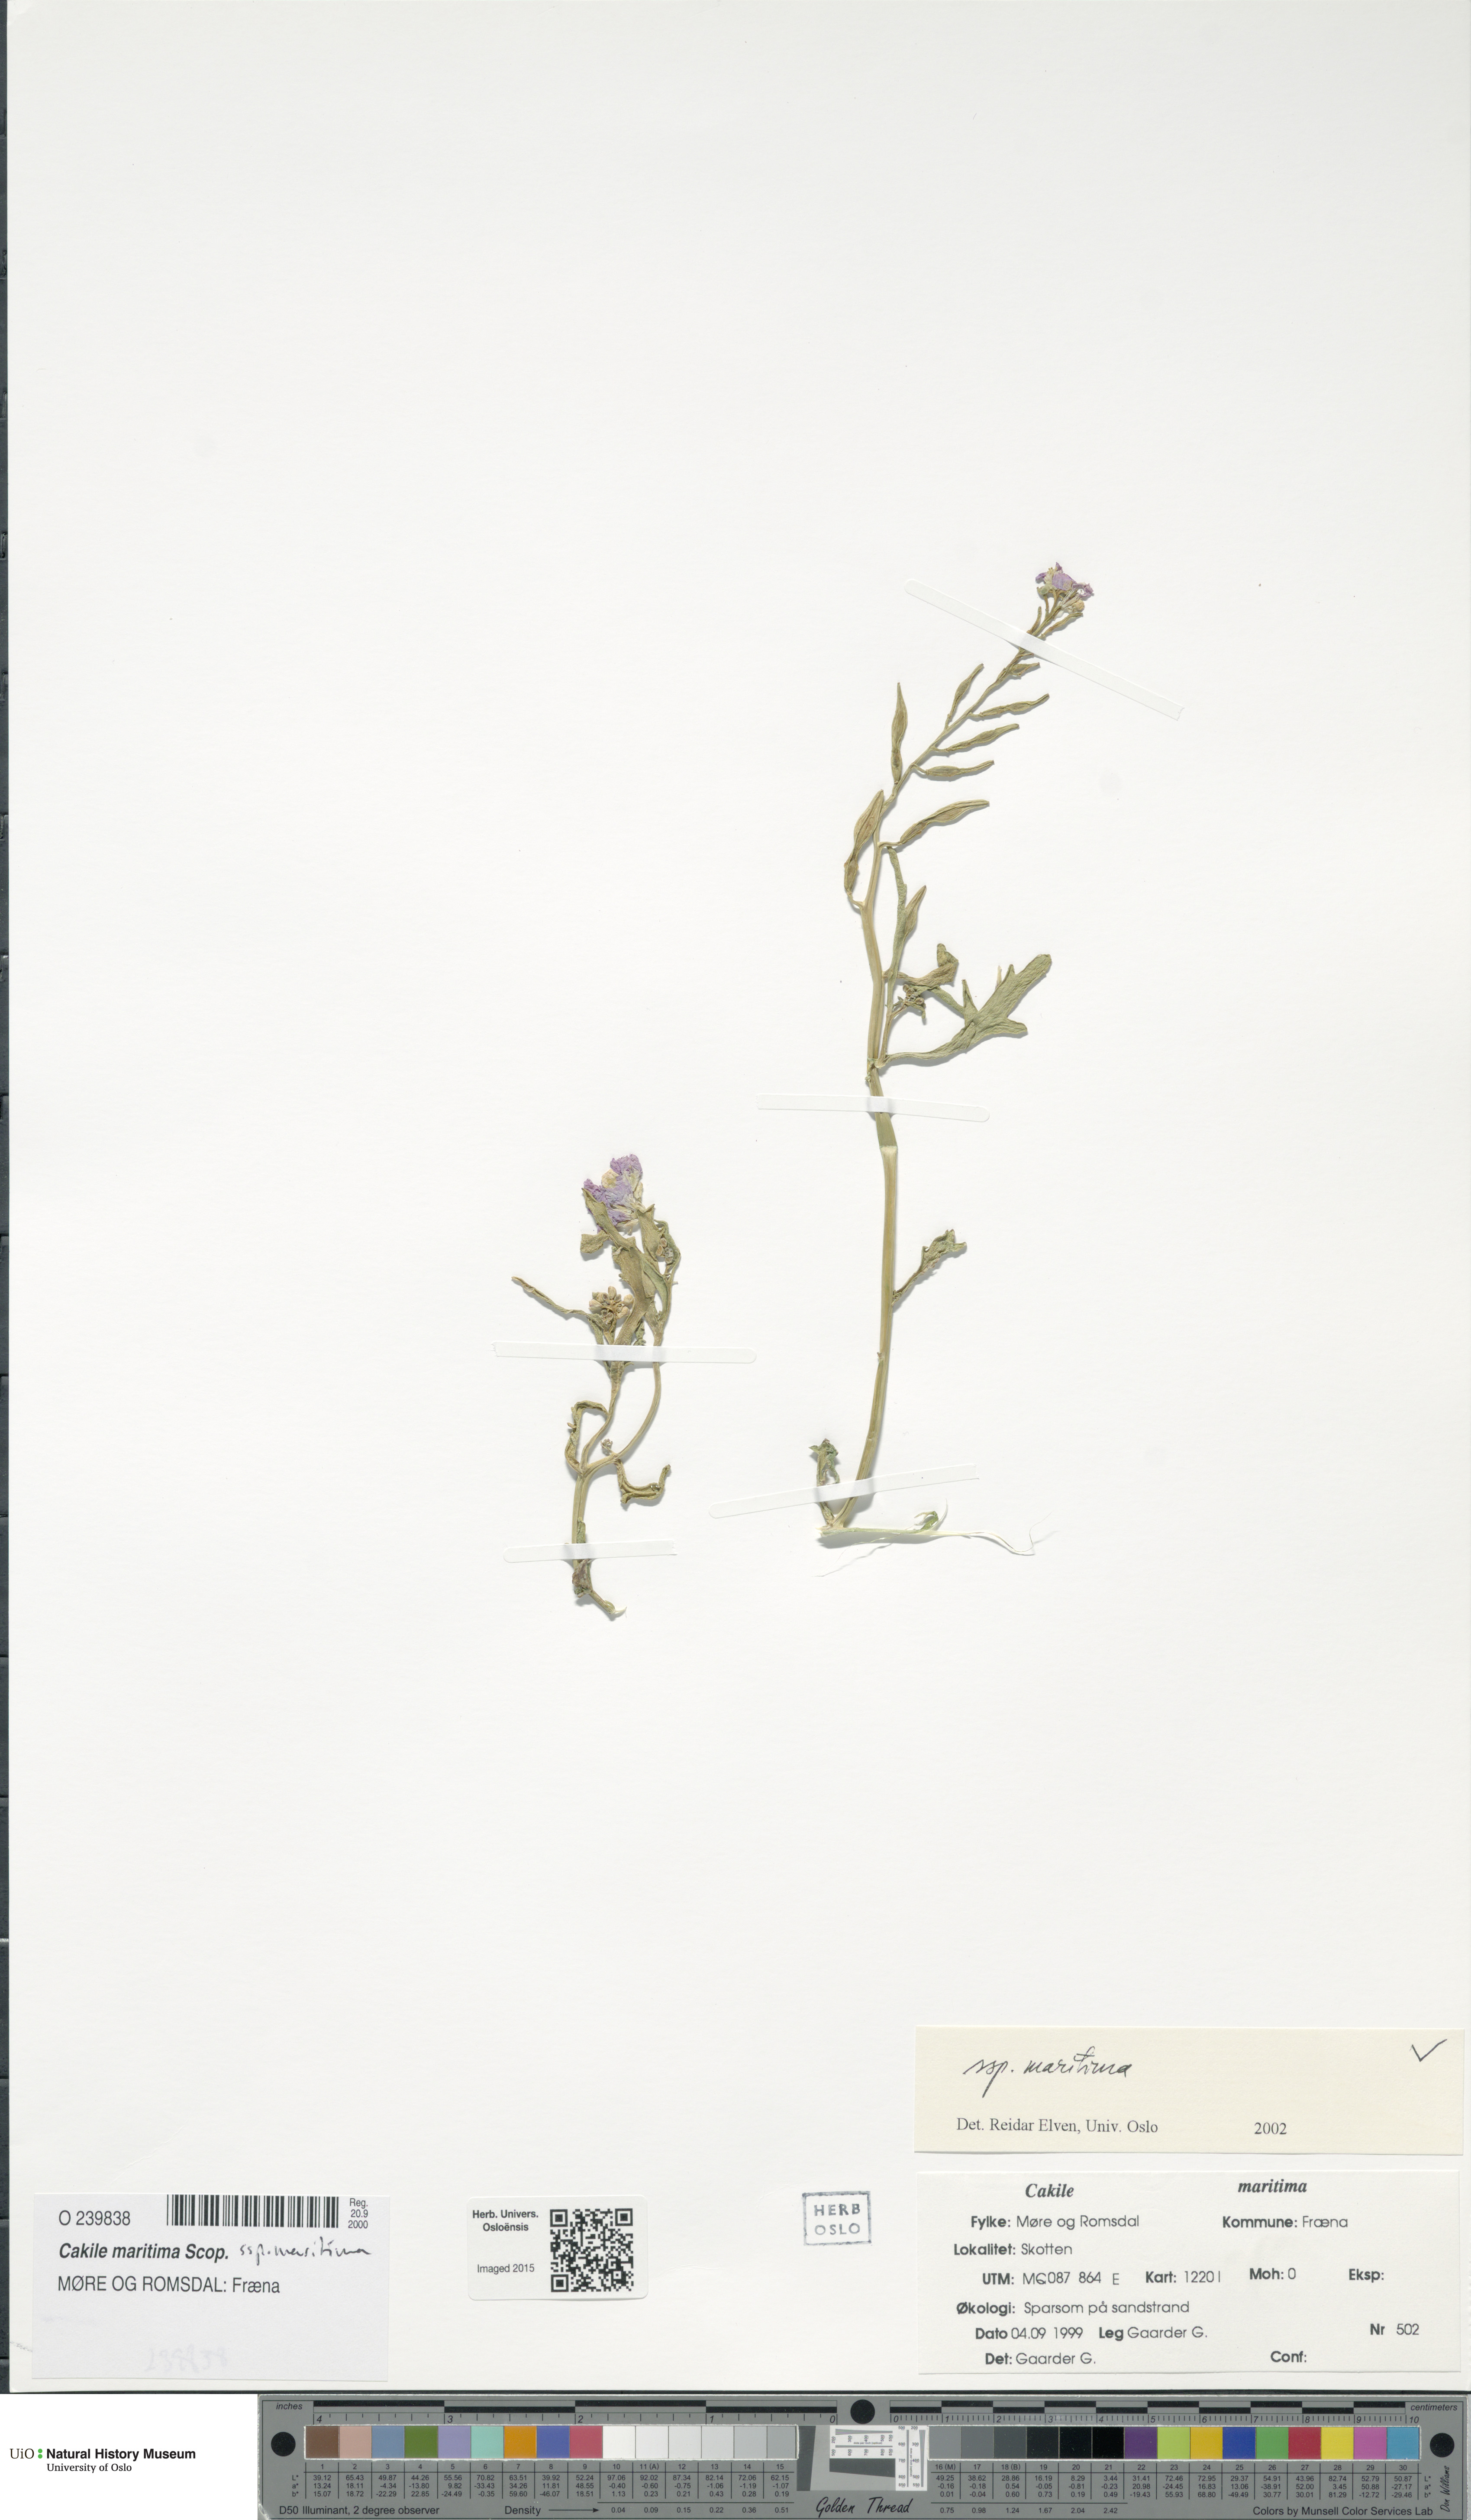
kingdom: Plantae
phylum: Tracheophyta
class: Magnoliopsida
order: Brassicales
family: Brassicaceae
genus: Cakile
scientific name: Cakile maritima
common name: Sea rocket
